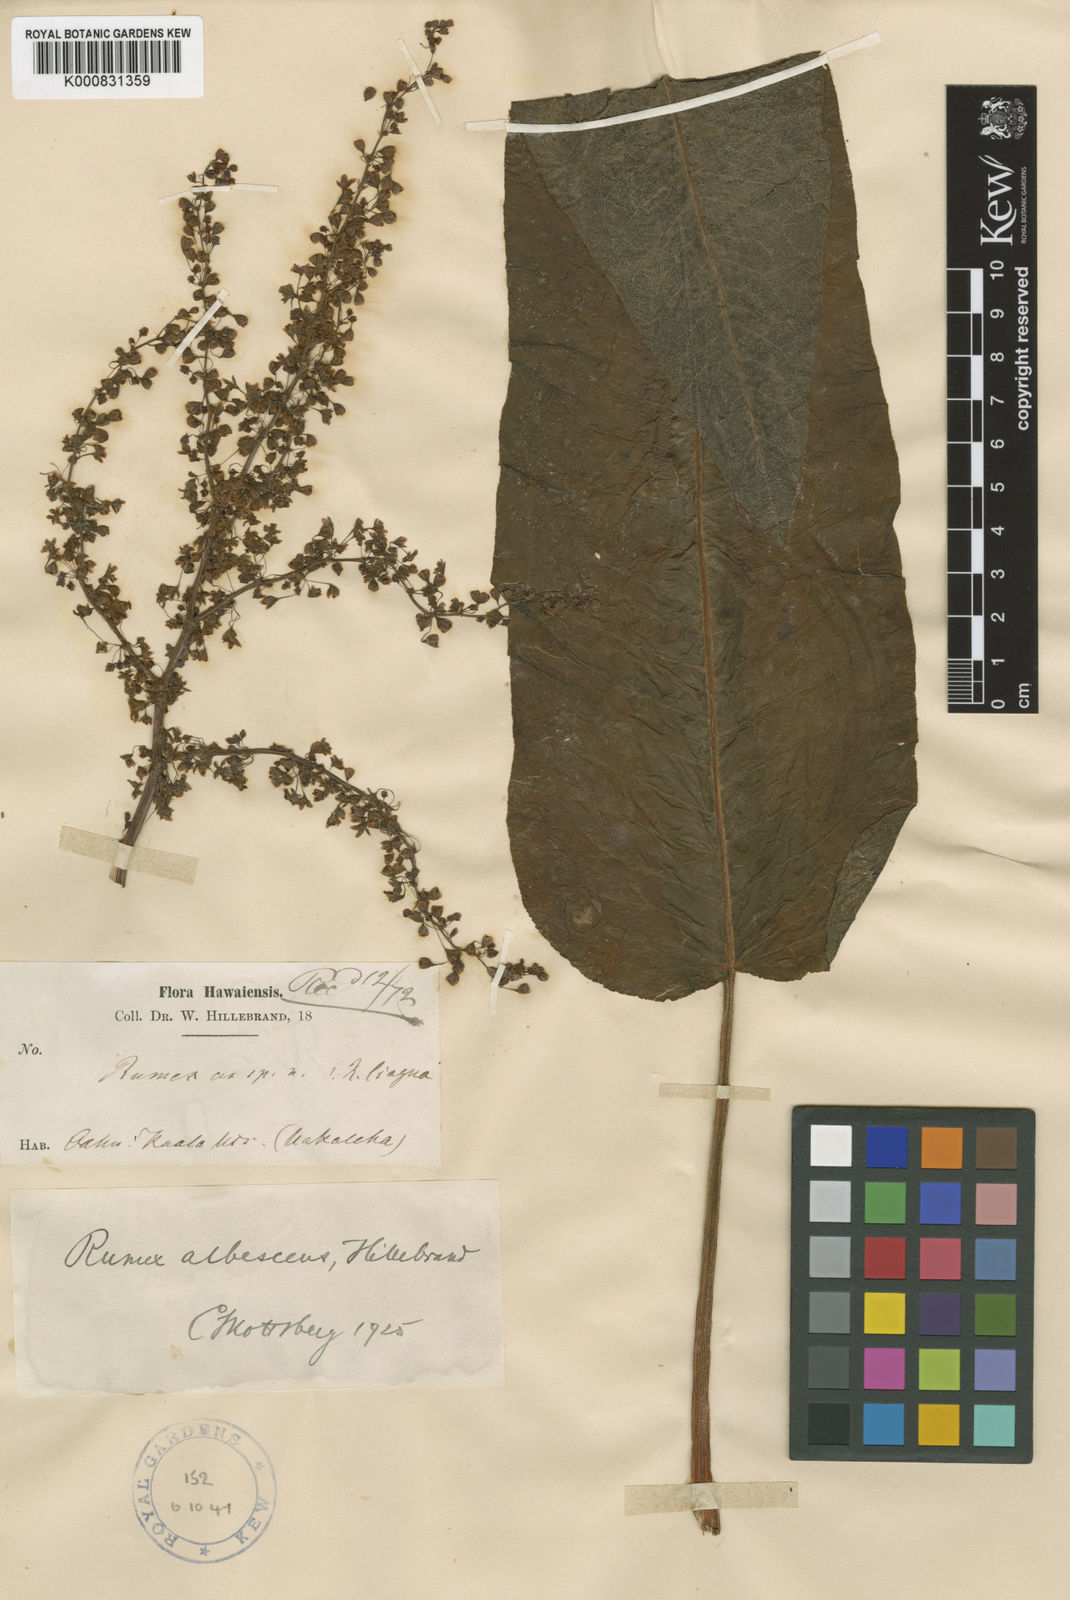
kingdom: Plantae
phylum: Tracheophyta
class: Magnoliopsida
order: Caryophyllales
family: Polygonaceae
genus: Rumex
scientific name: Rumex albescens
